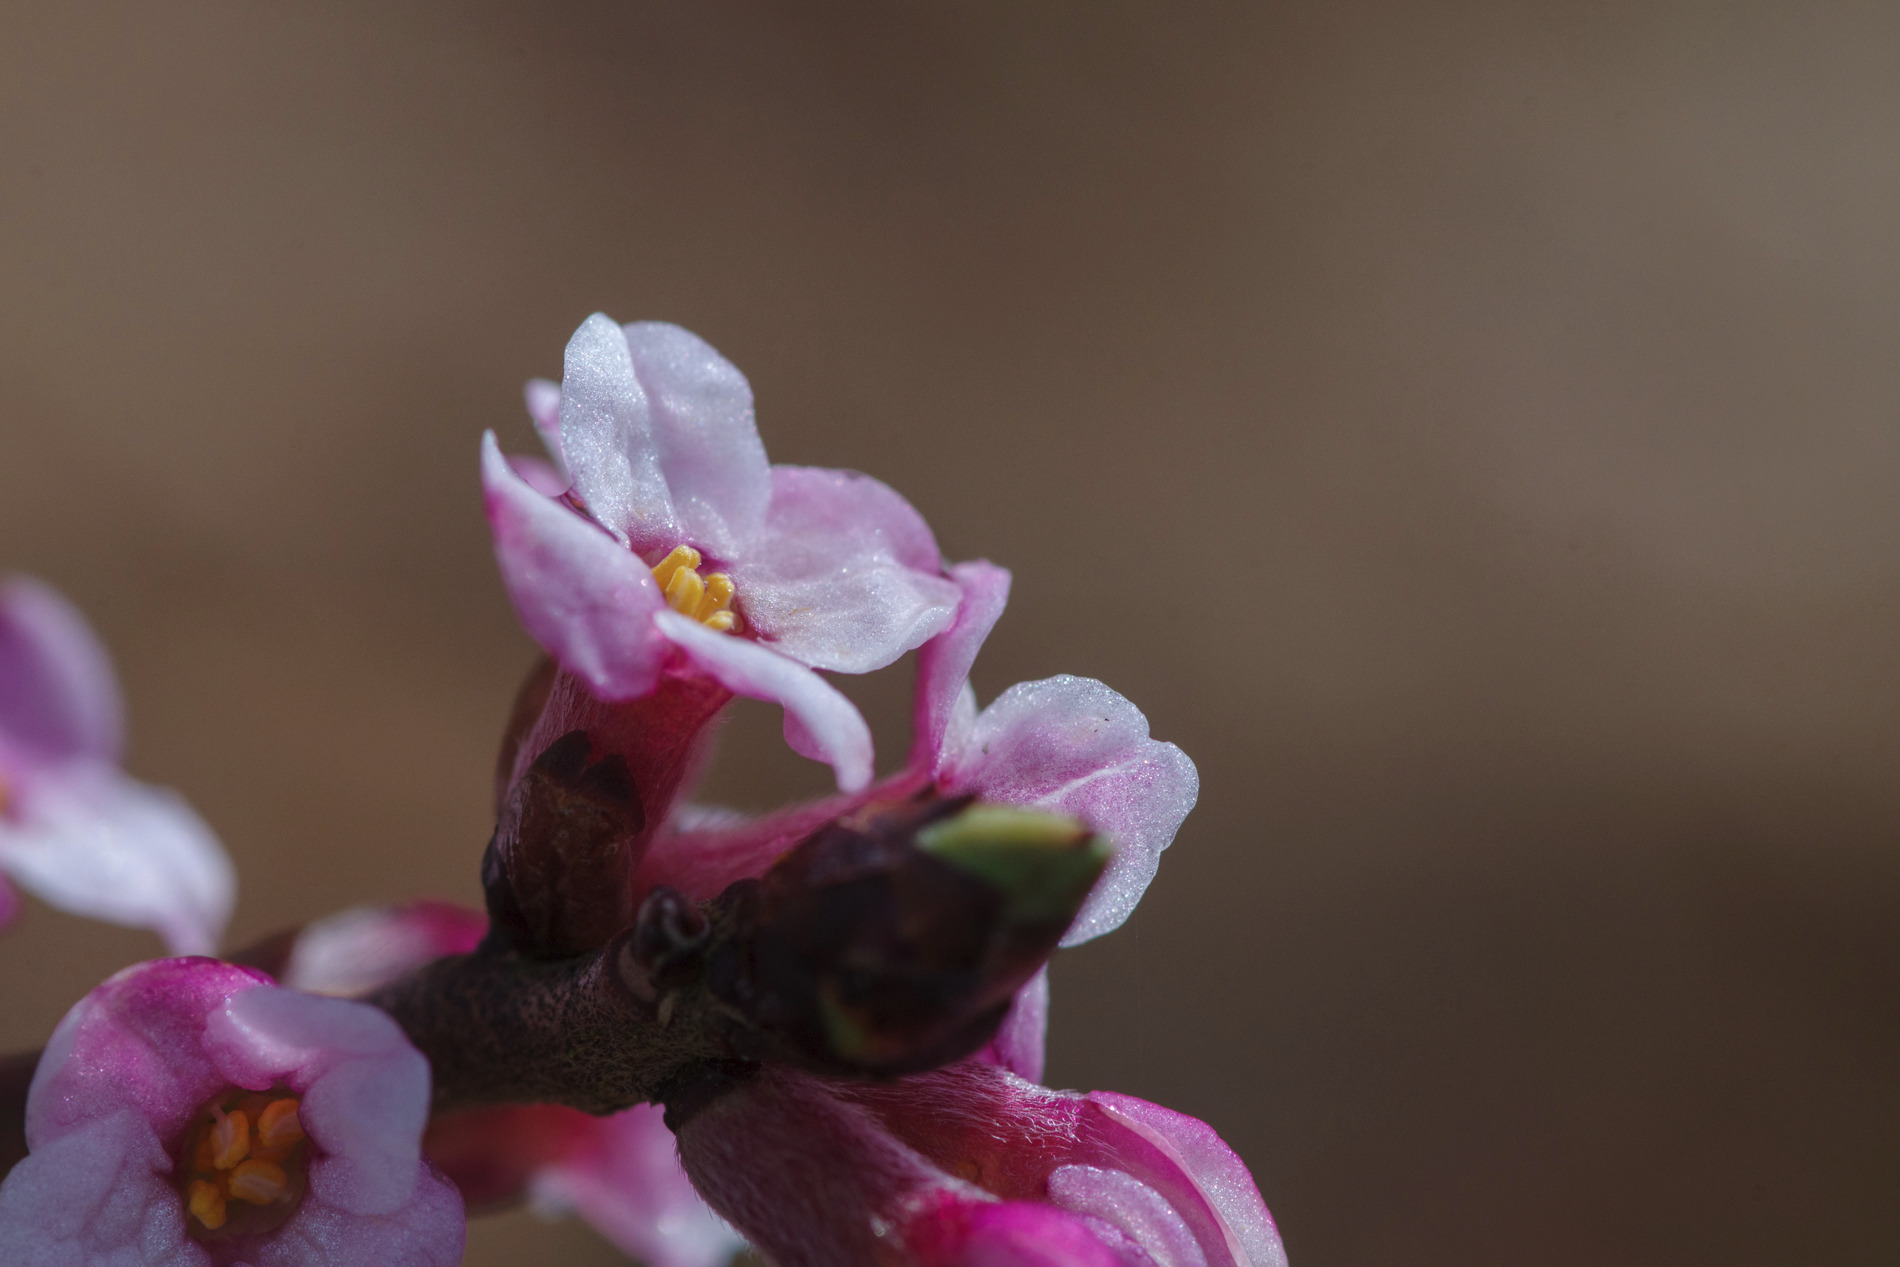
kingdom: Plantae
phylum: Tracheophyta
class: Magnoliopsida
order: Malvales
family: Thymelaeaceae
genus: Daphne
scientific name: Daphne mezereum
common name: Pebertræ
